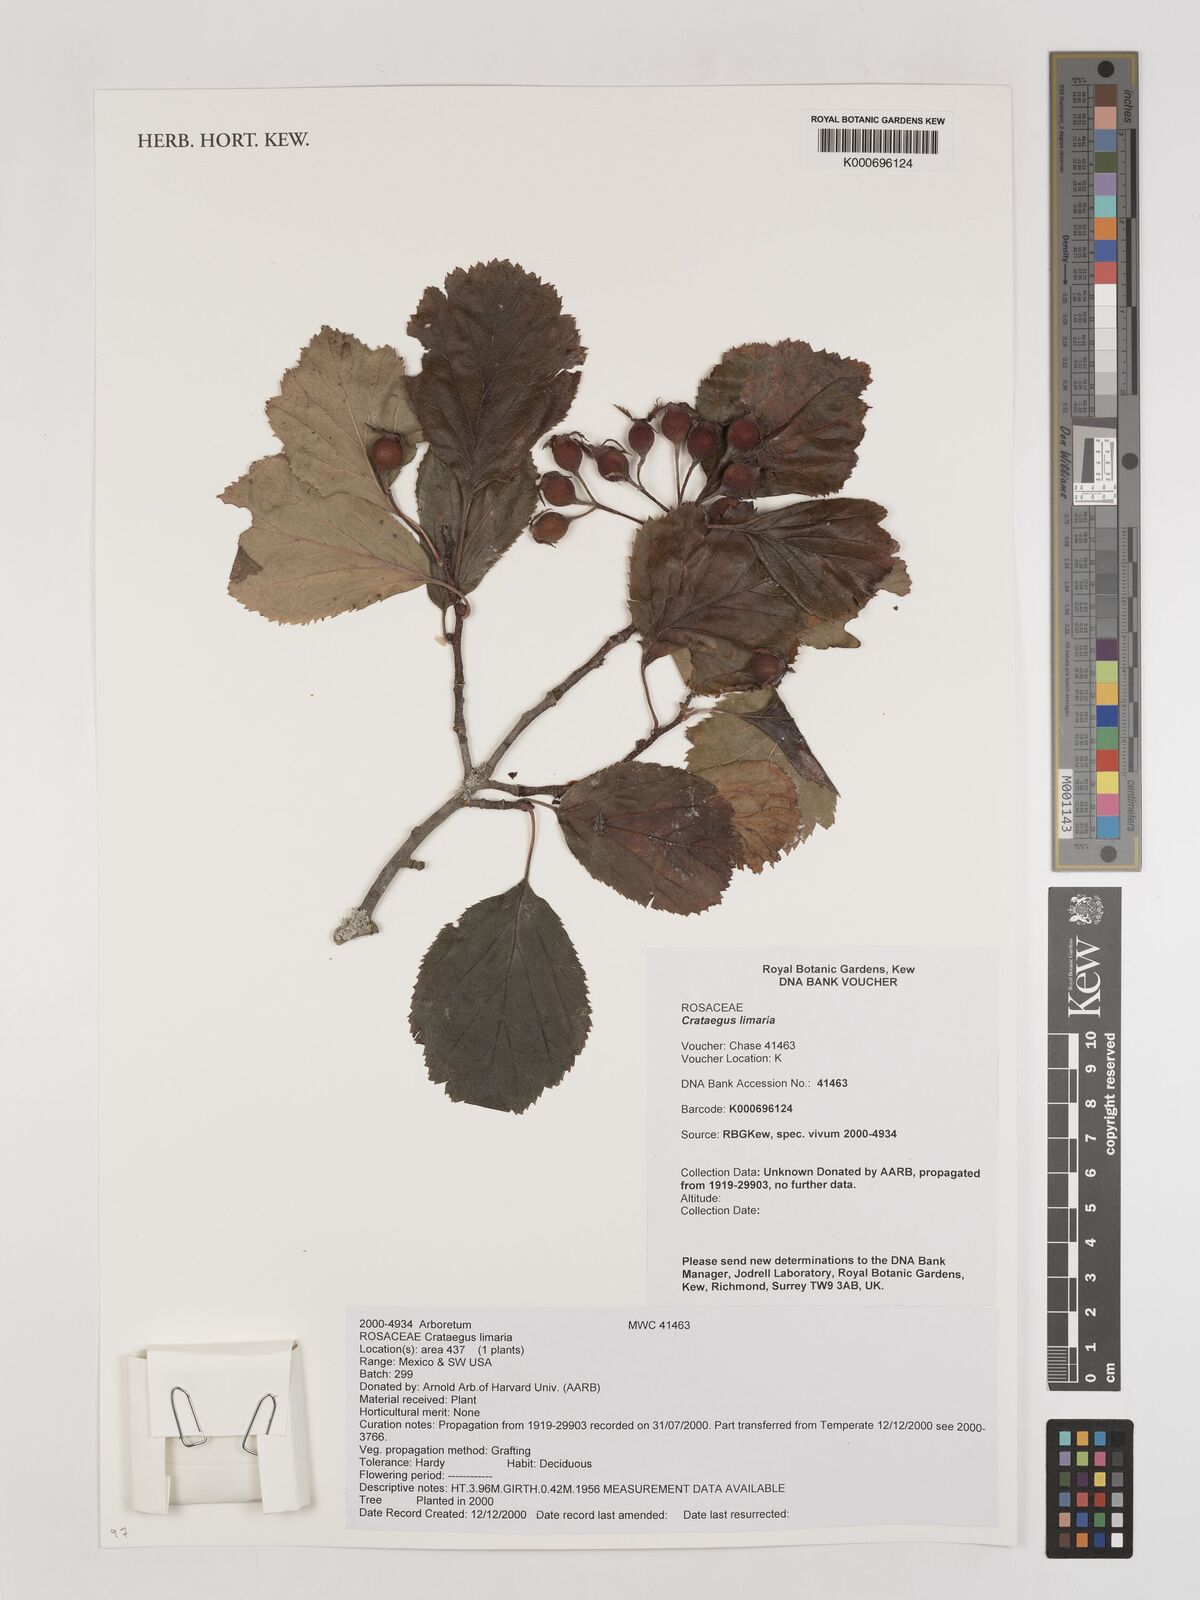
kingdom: Plantae
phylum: Tracheophyta
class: Magnoliopsida
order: Rosales
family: Rosaceae
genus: Crataegus
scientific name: Crataegus mollis
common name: Downy hawthorn
